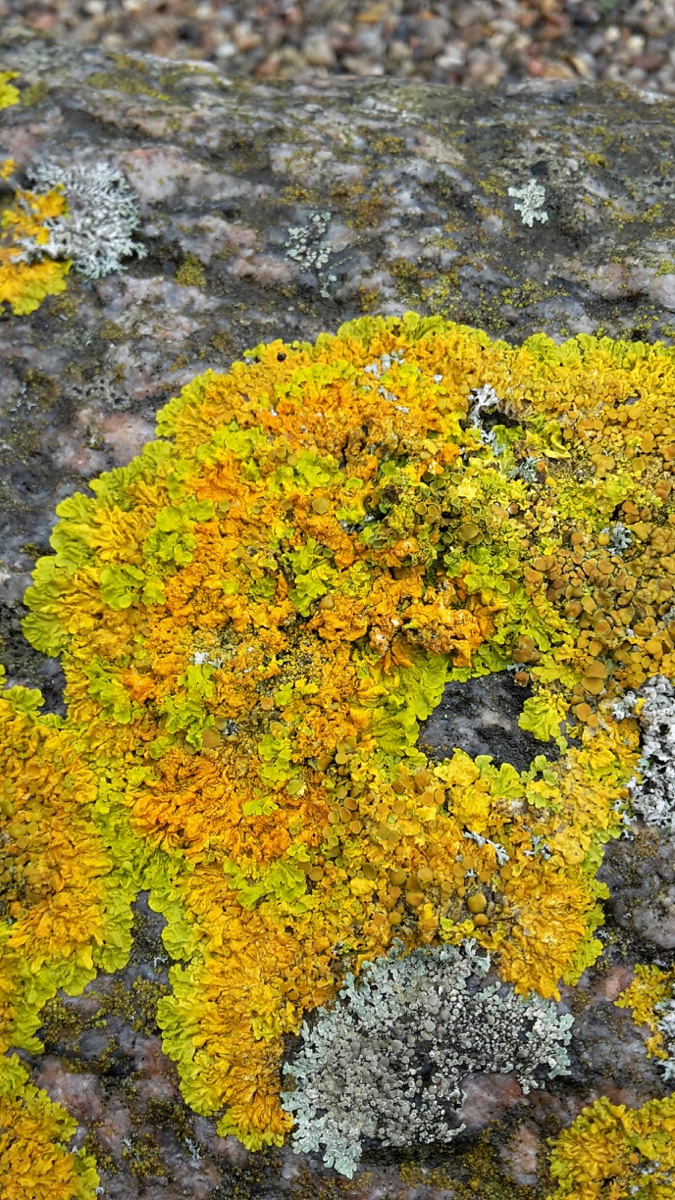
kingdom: Fungi
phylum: Ascomycota
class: Lecanoromycetes
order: Teloschistales
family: Teloschistaceae
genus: Xanthoria
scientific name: Xanthoria parietina
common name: almindelig væggelav
